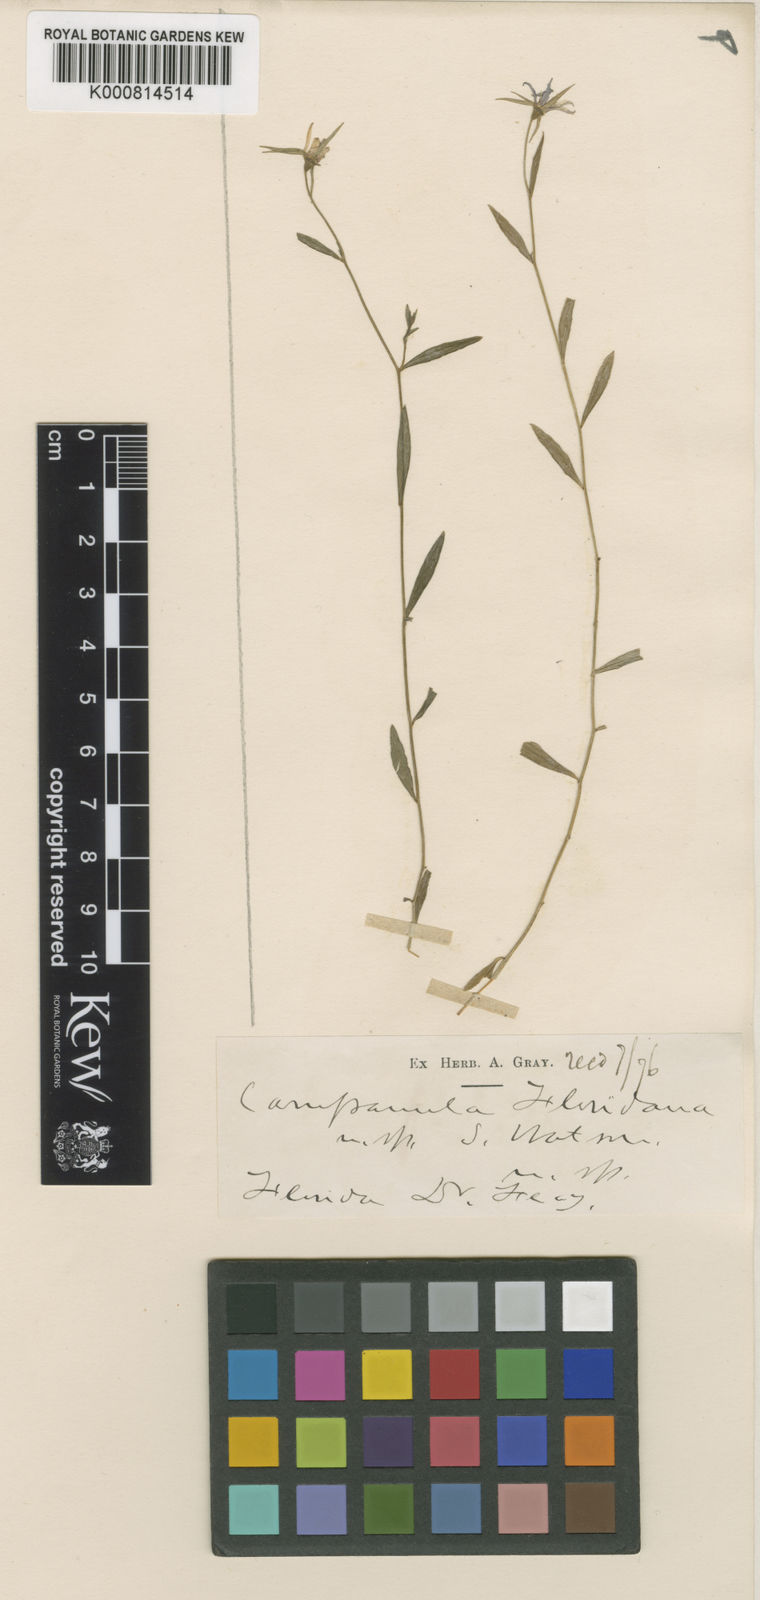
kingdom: Plantae
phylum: Tracheophyta
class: Magnoliopsida
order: Asterales
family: Campanulaceae
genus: Rotanthella
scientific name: Rotanthella floridana
